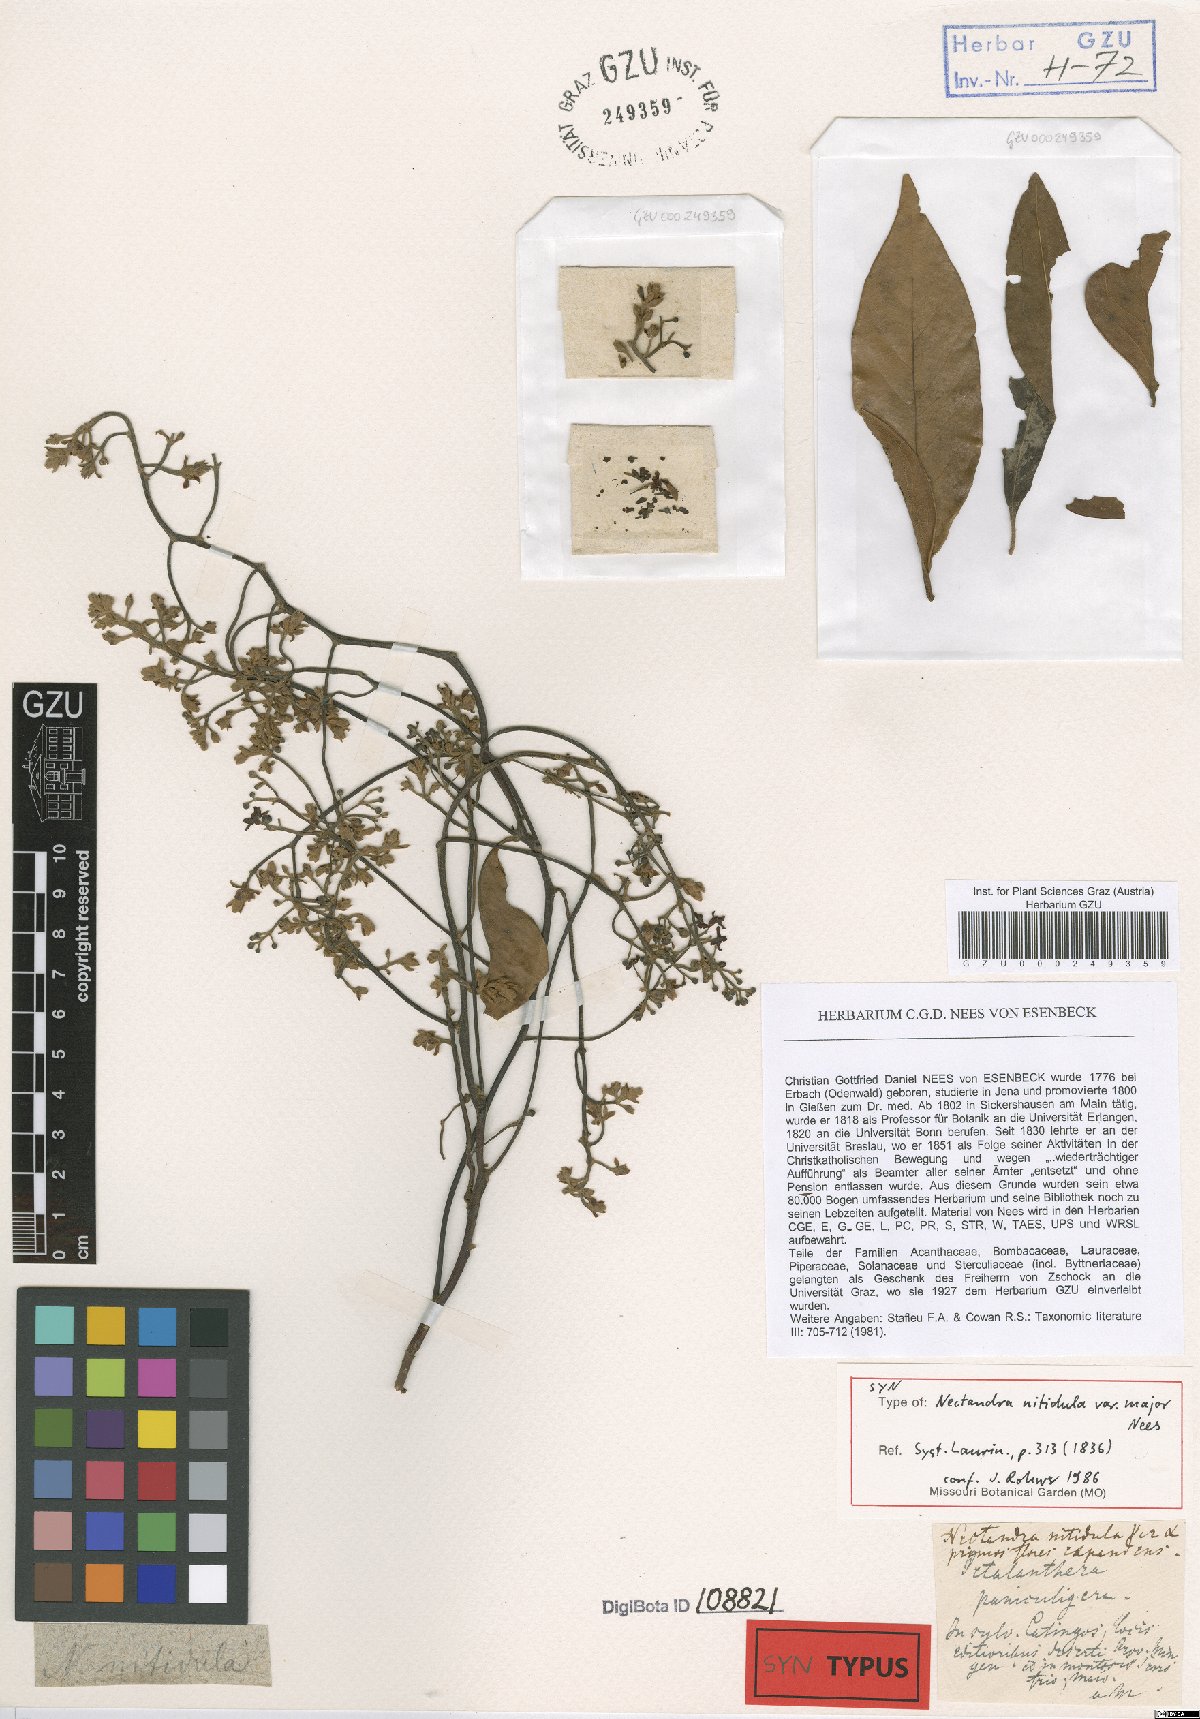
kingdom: Plantae
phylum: Tracheophyta
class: Magnoliopsida
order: Laurales
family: Lauraceae
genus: Nectandra
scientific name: Nectandra nitidula
